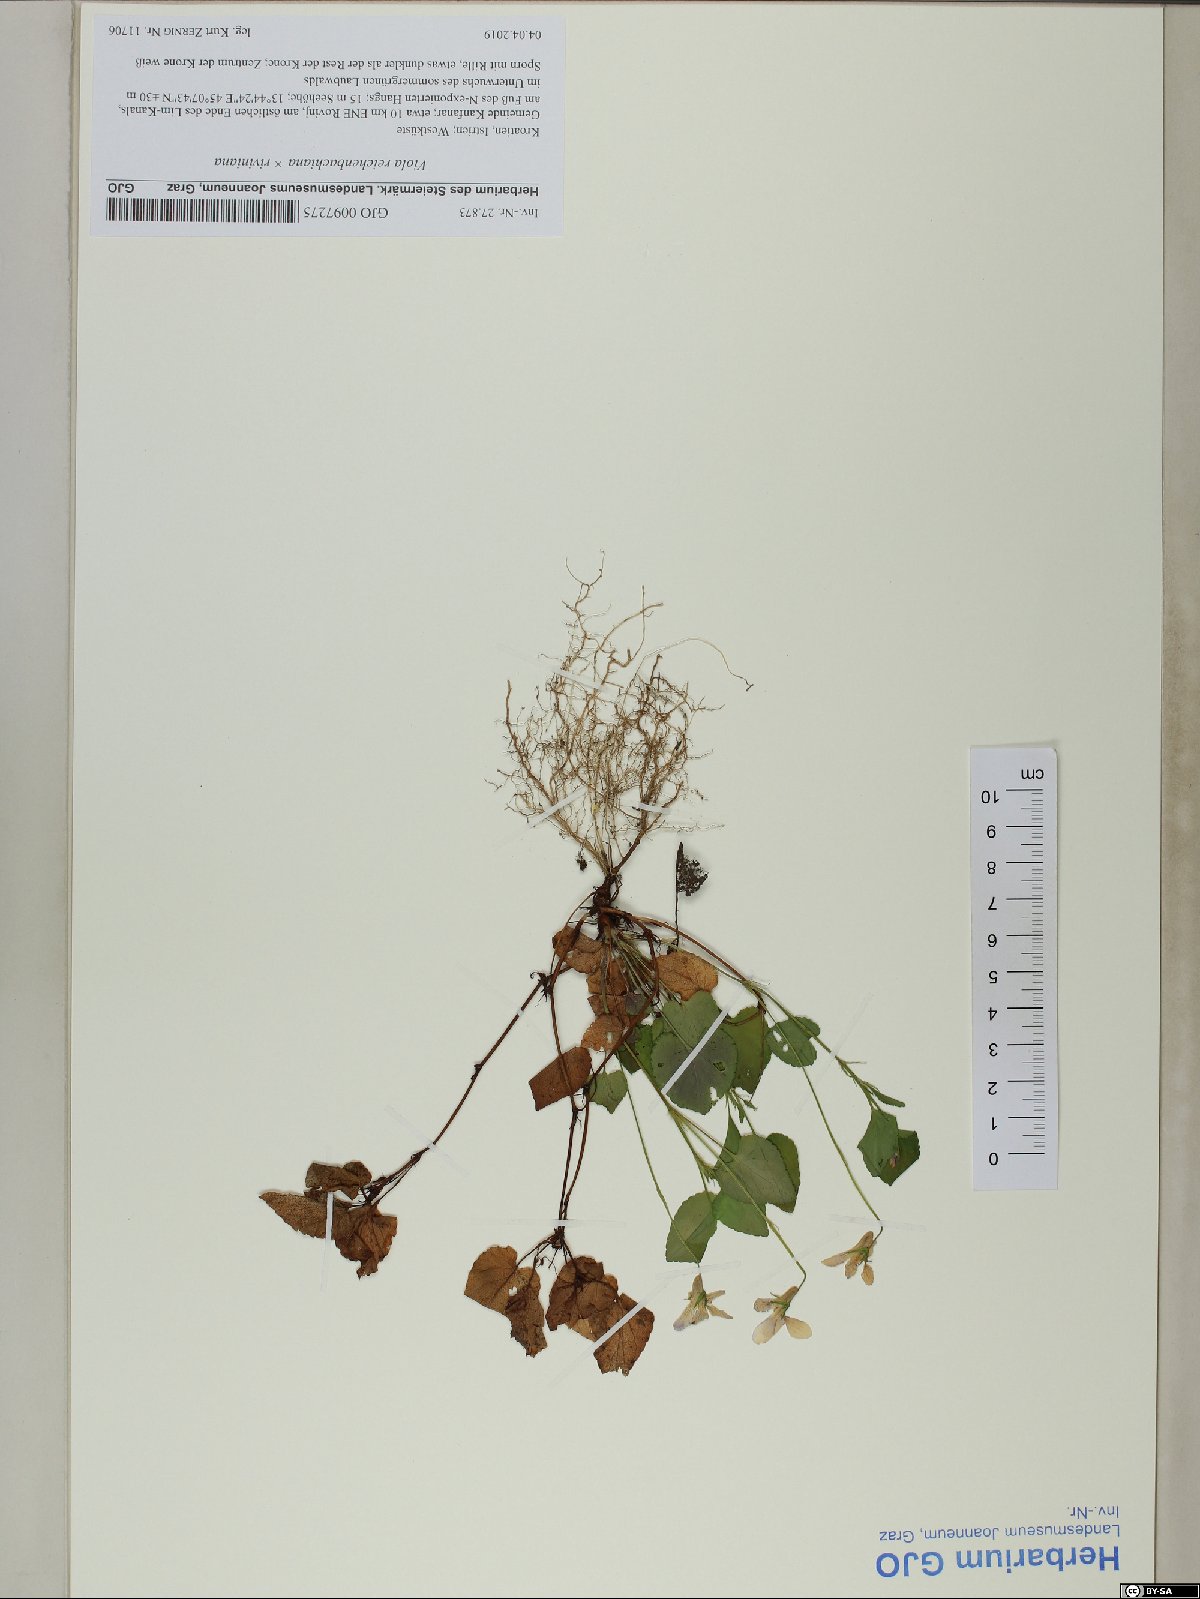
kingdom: Plantae
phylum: Tracheophyta
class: Magnoliopsida
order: Malpighiales
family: Violaceae
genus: Viola
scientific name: Viola reichenbachiana
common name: Early dog-violet
